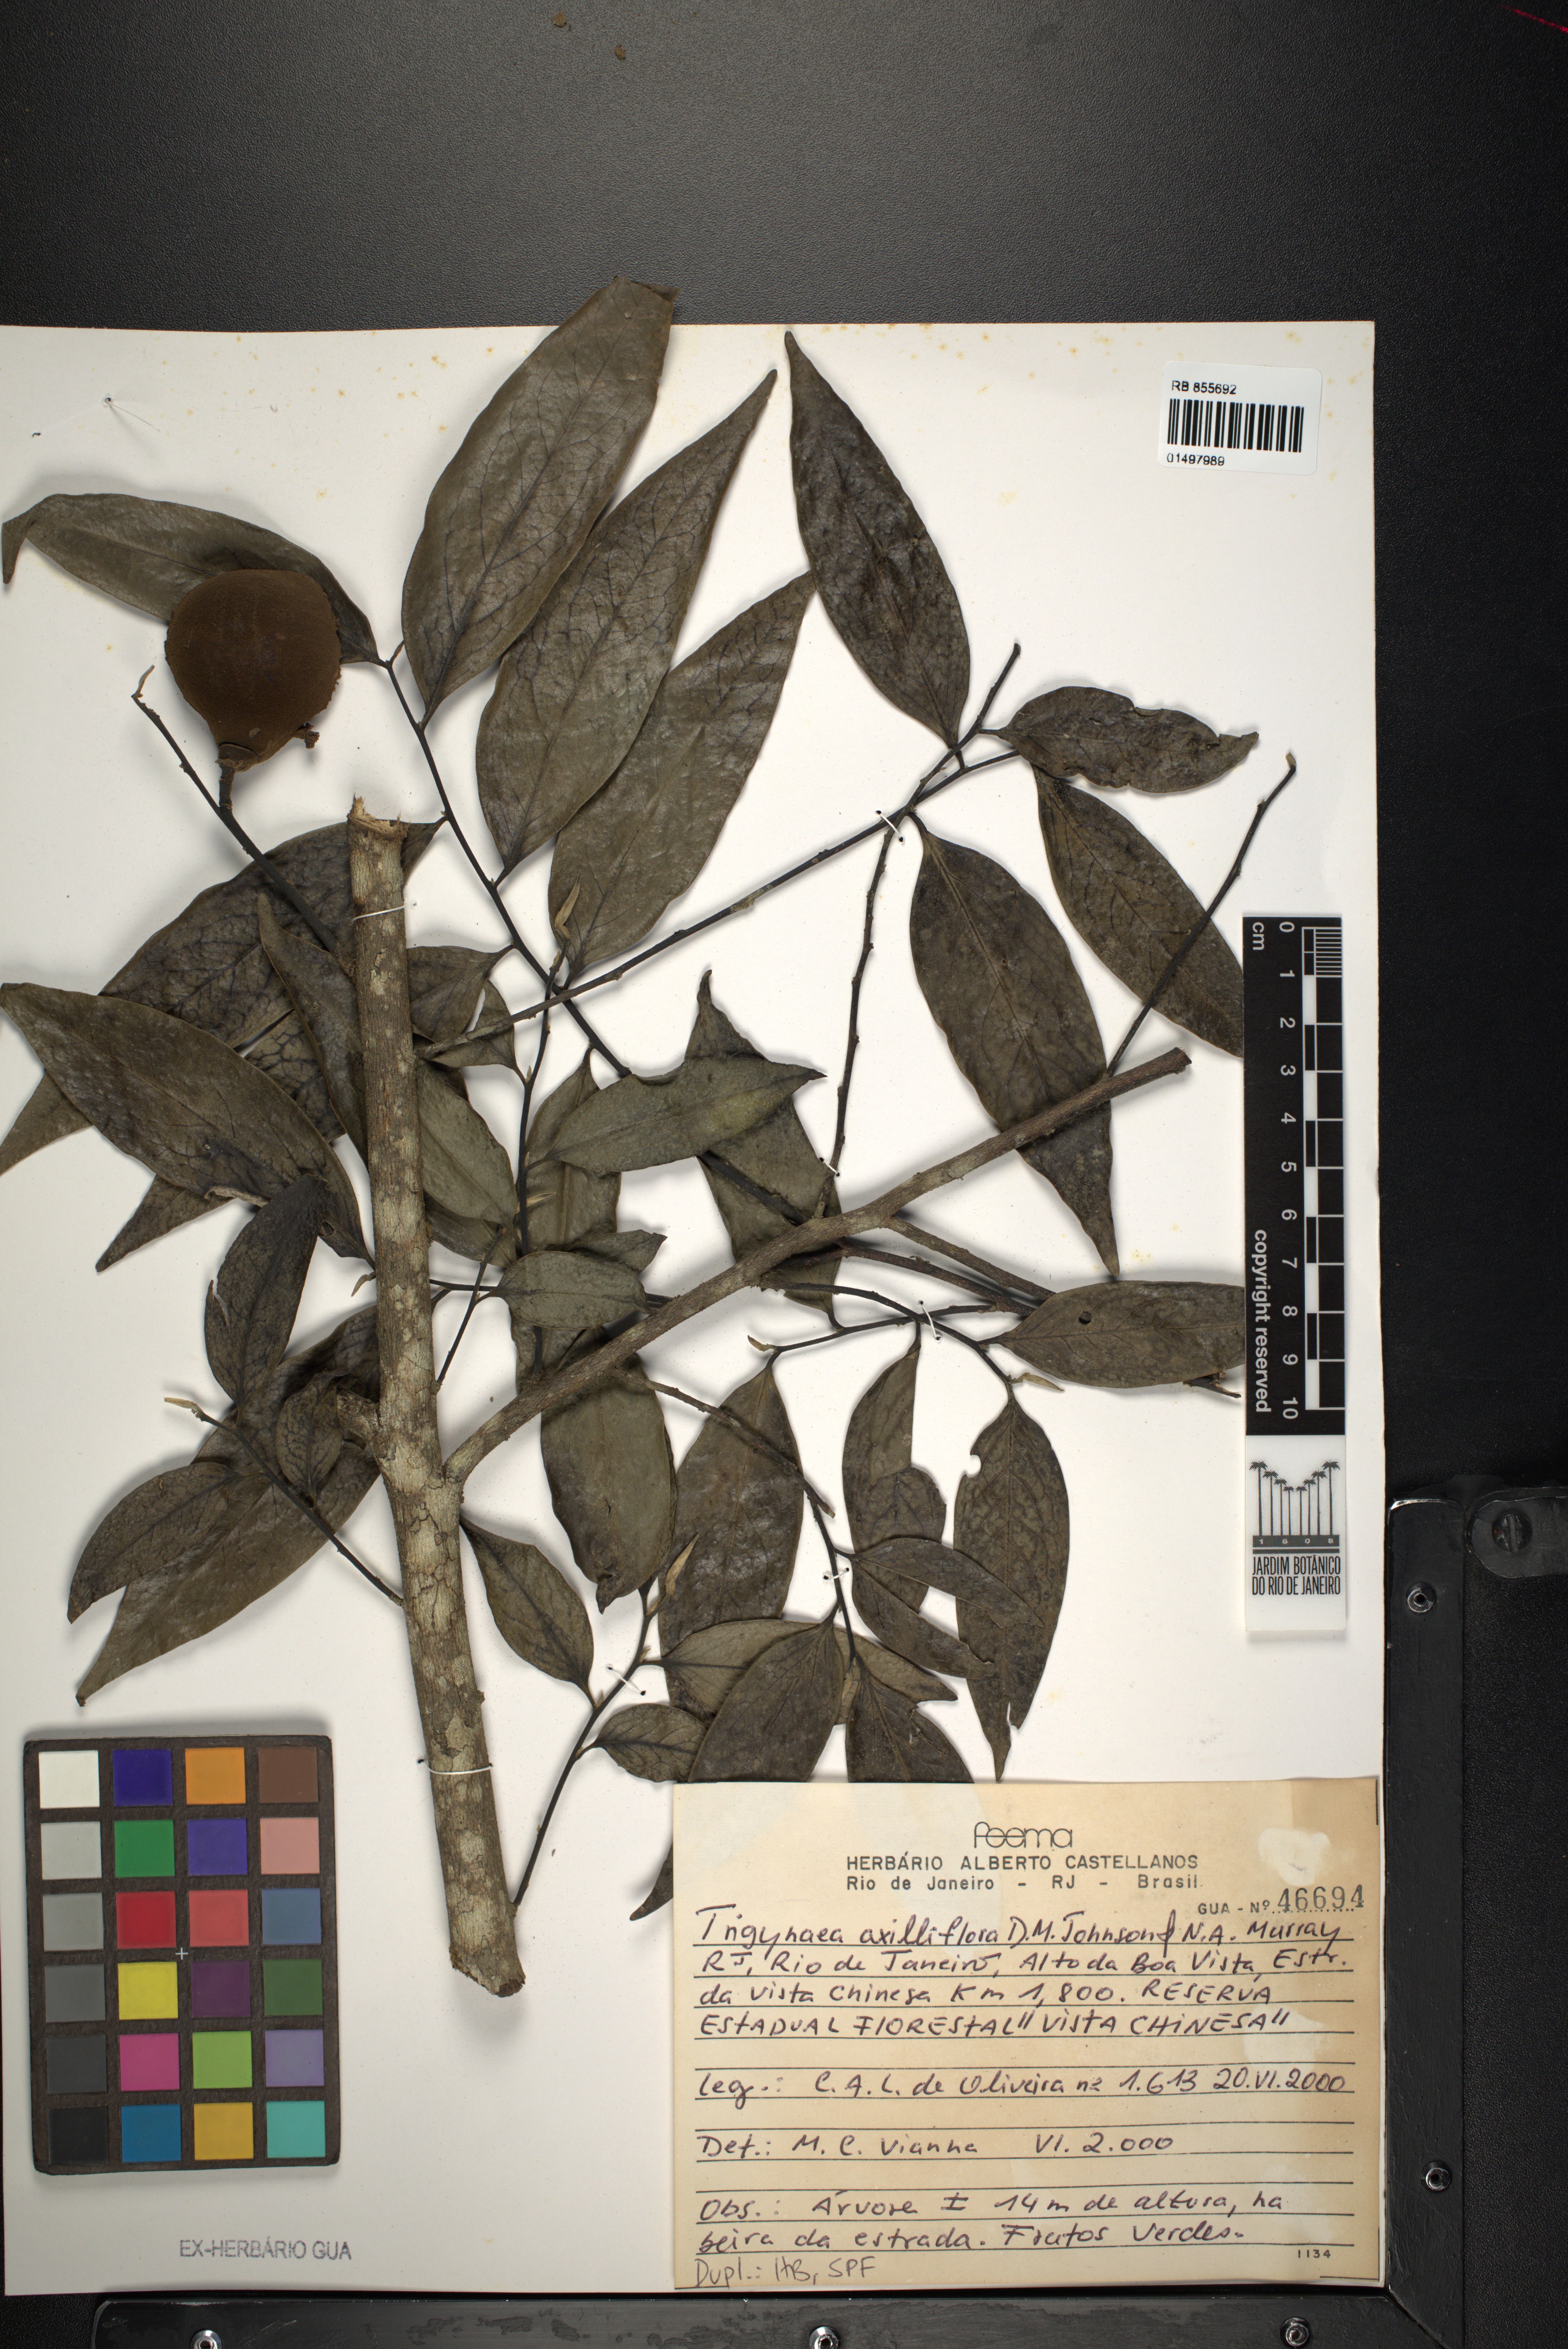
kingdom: Plantae
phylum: Tracheophyta
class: Magnoliopsida
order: Magnoliales
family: Annonaceae
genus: Trigynaea
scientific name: Trigynaea axilliflora
